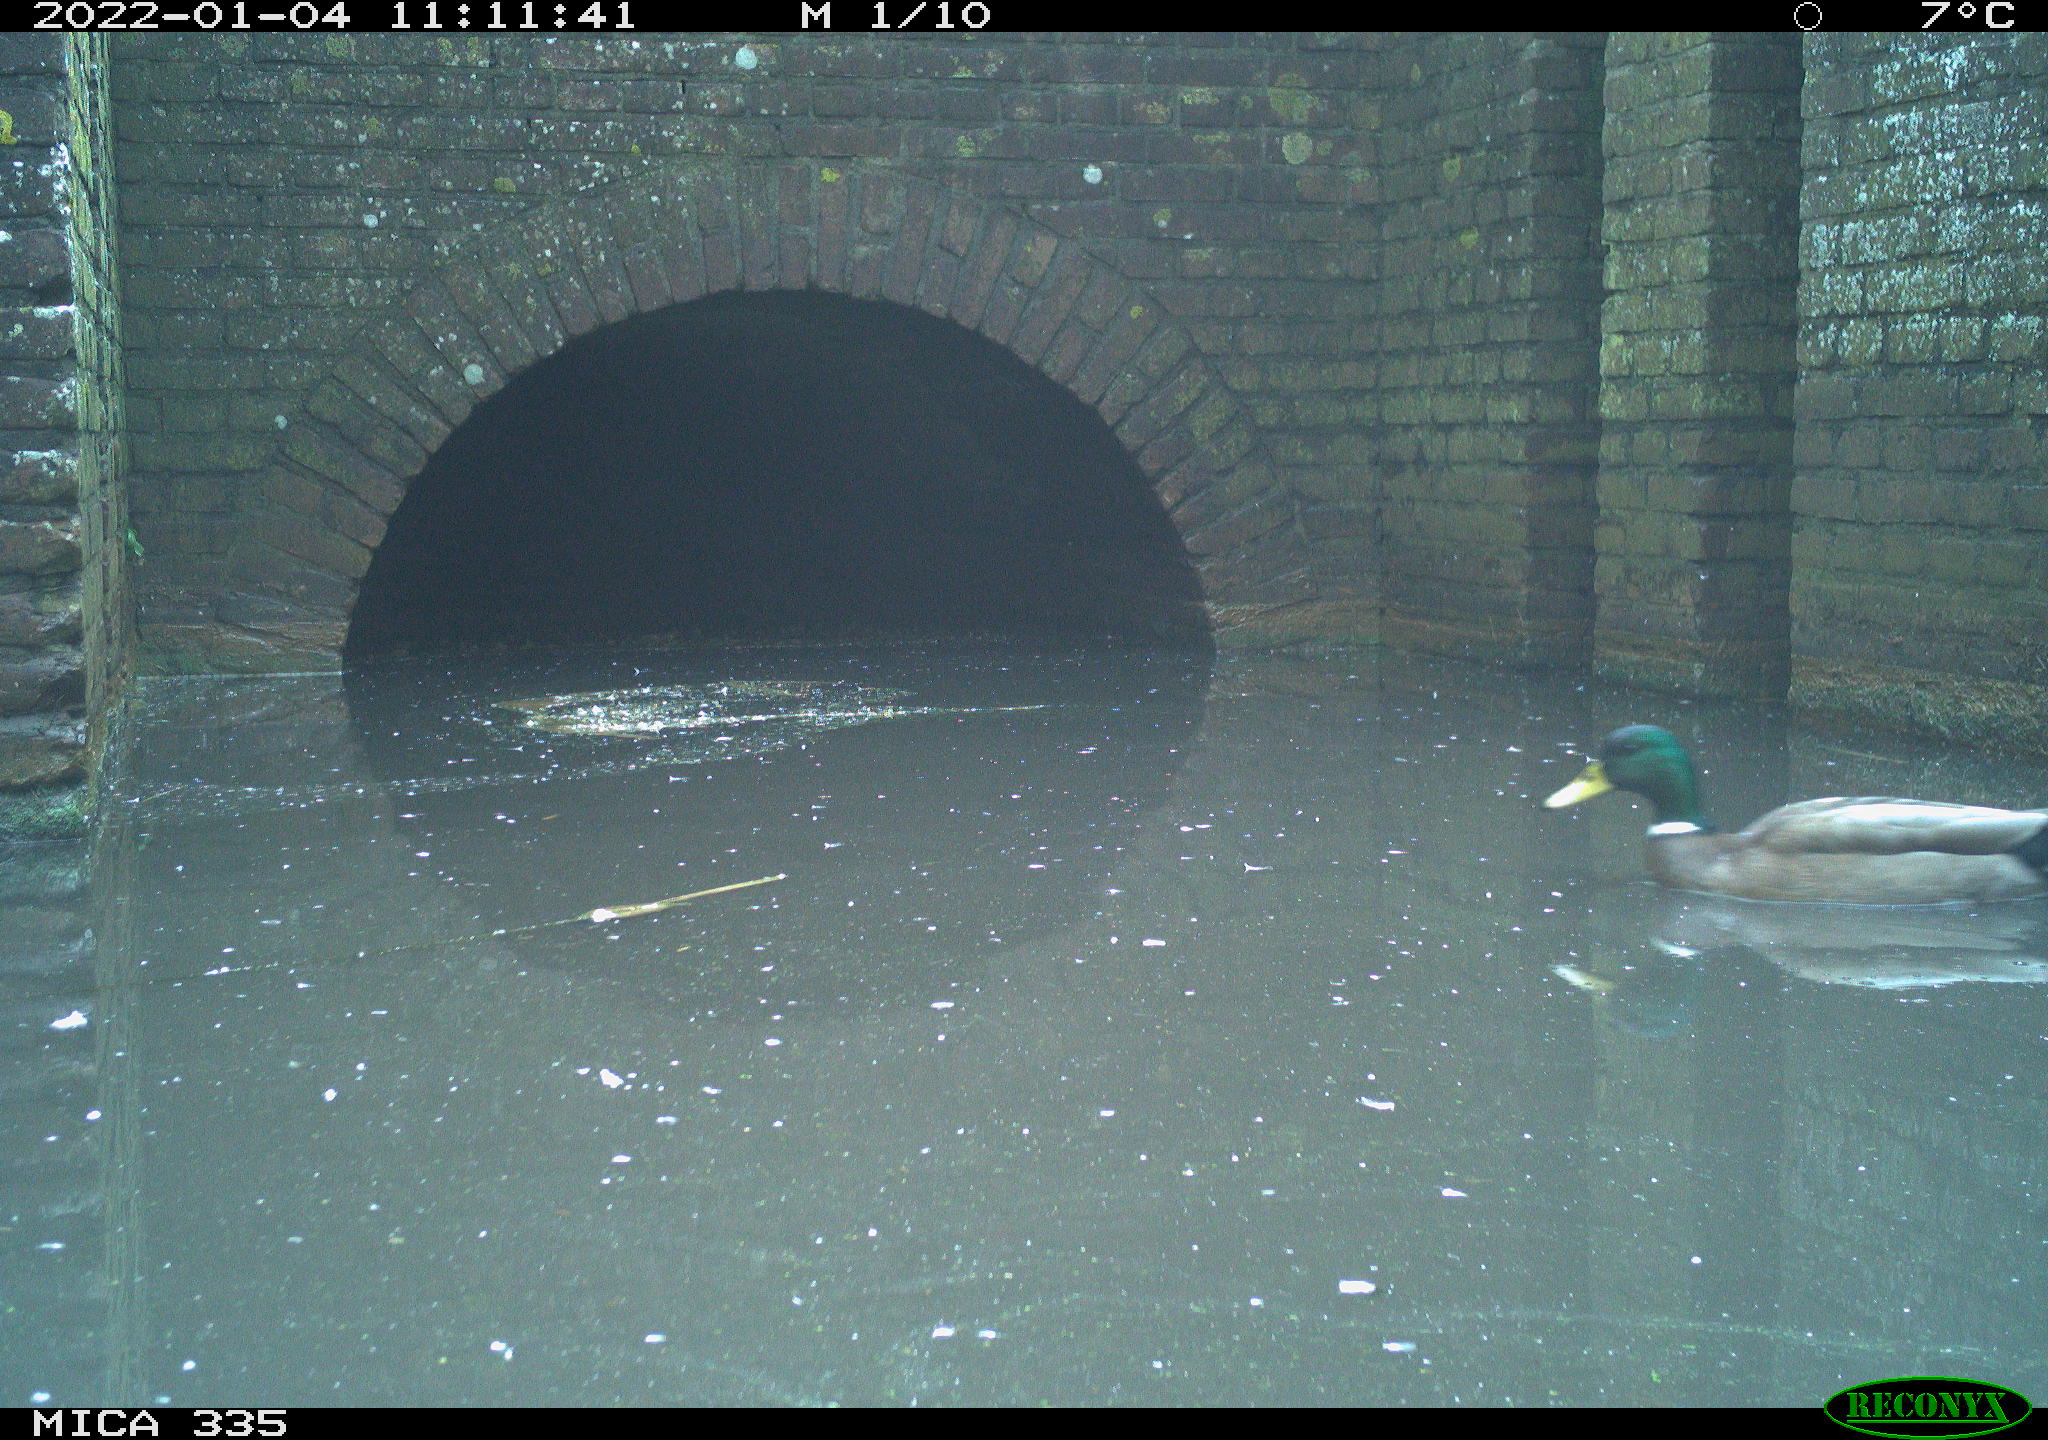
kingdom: Animalia
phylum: Chordata
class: Aves
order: Anseriformes
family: Anatidae
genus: Anas
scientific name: Anas platyrhynchos
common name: Mallard
